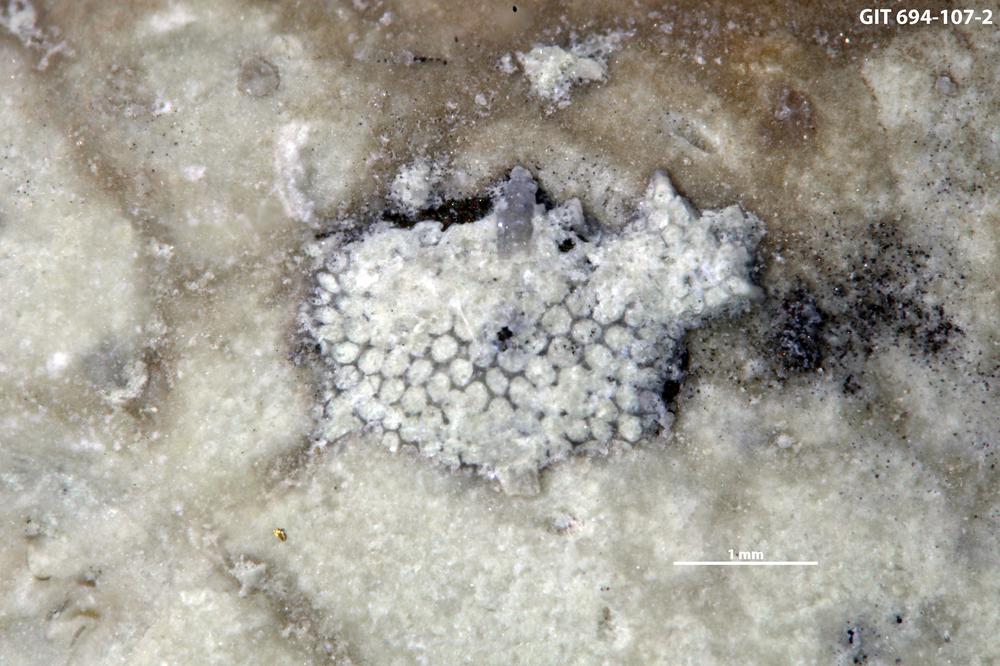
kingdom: Animalia
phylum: Bryozoa
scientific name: Bryozoa
